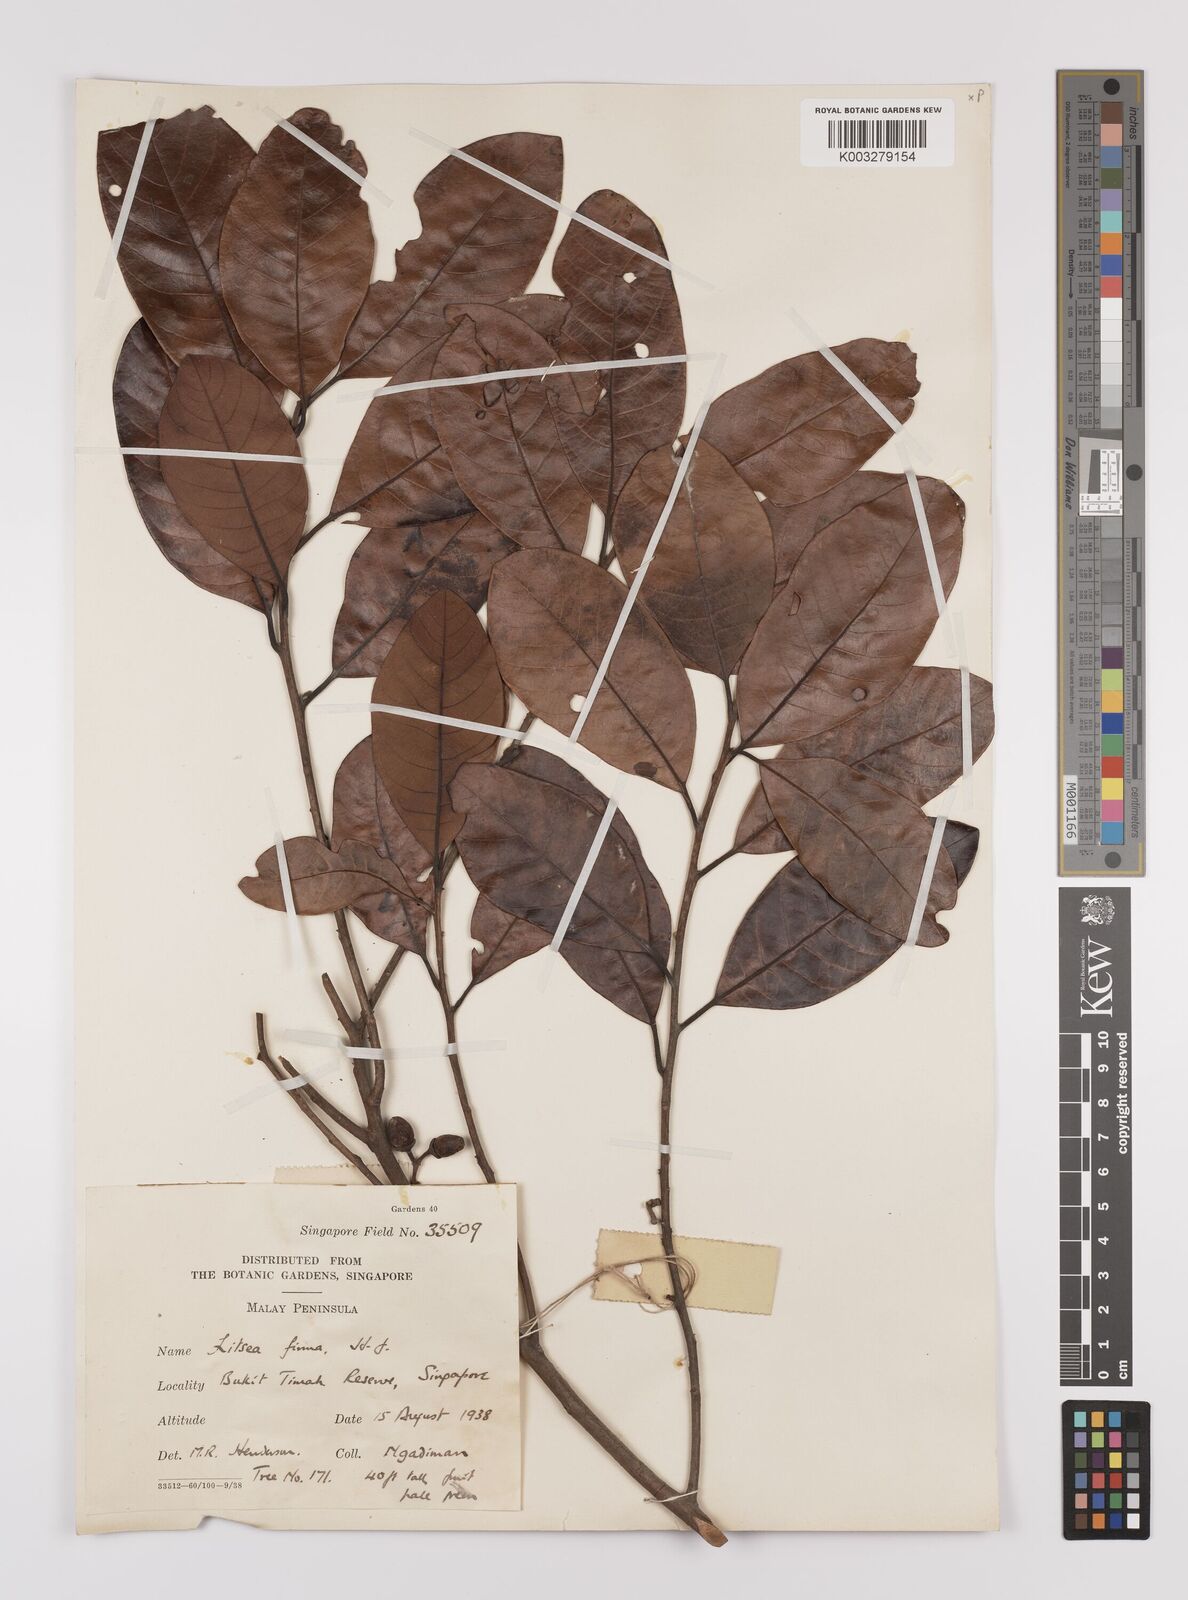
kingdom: Plantae
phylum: Tracheophyta
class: Magnoliopsida
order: Laurales
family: Lauraceae
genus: Litsea
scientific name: Litsea firma
